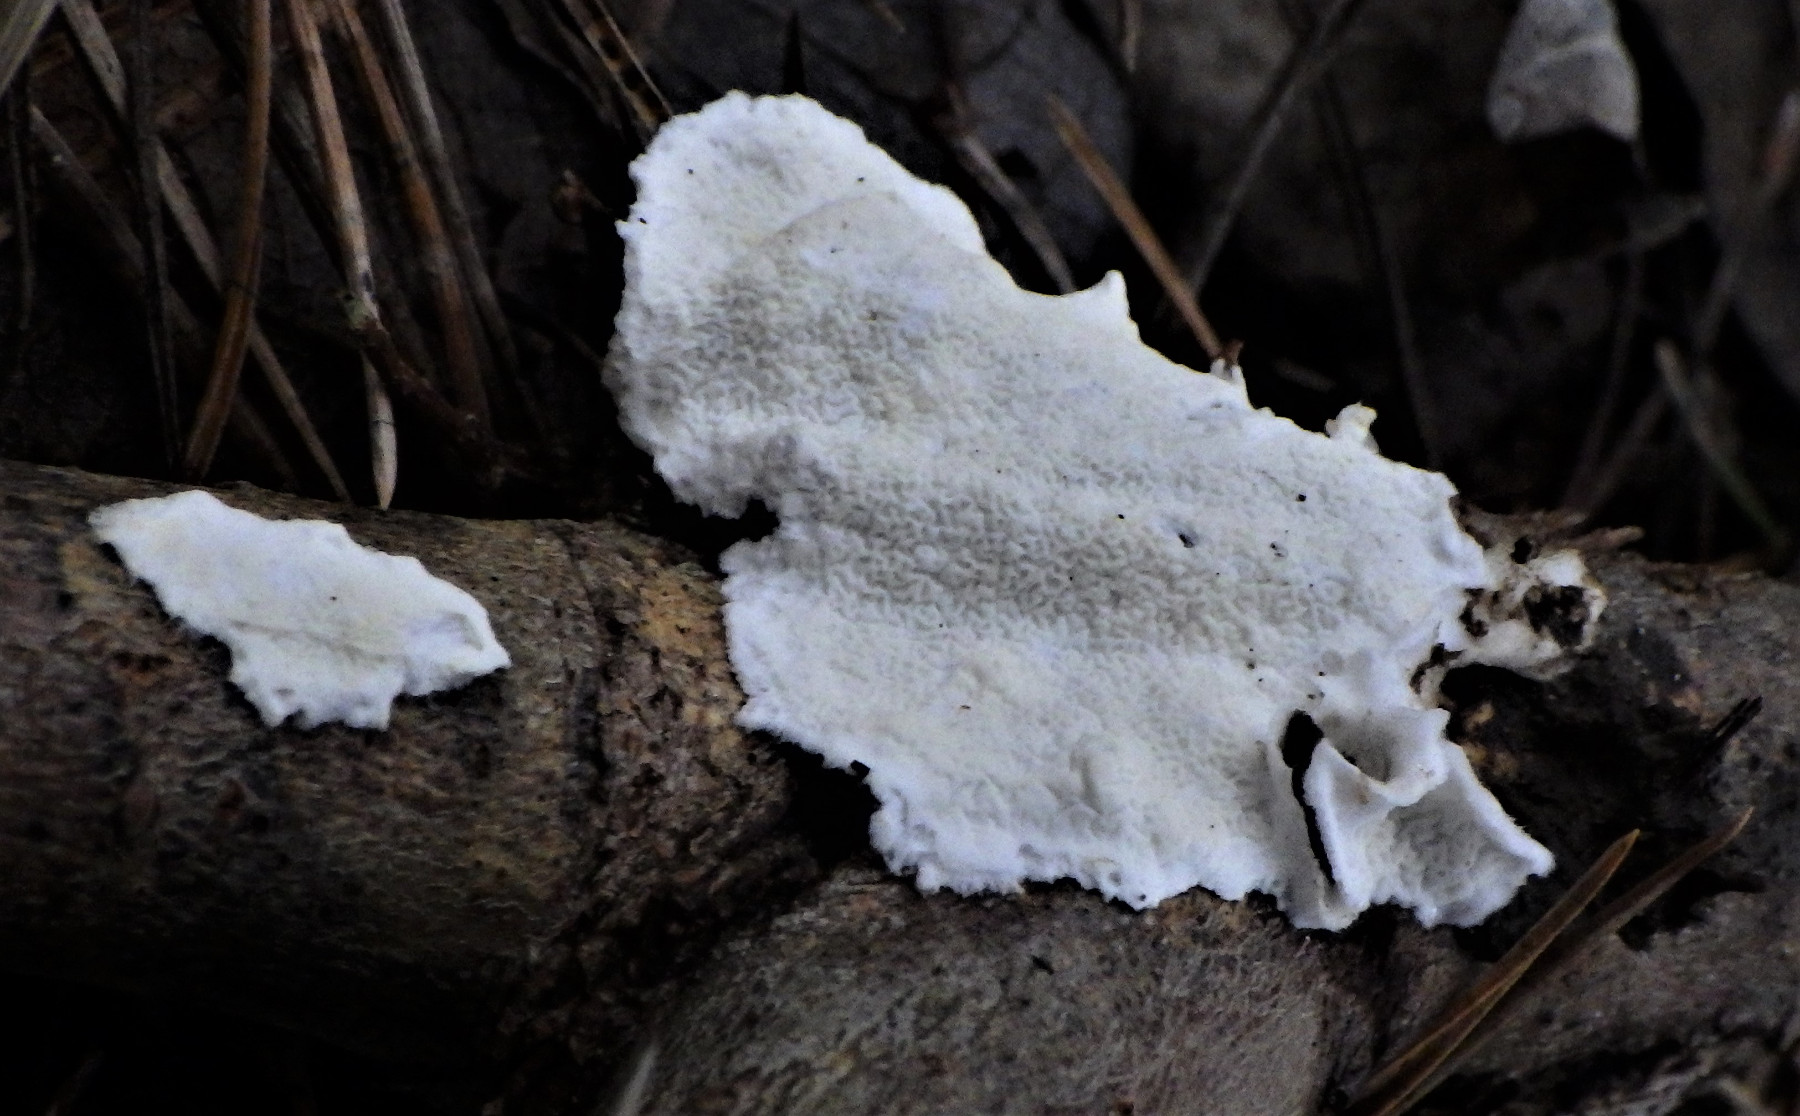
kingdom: Fungi
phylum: Basidiomycota
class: Agaricomycetes
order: Polyporales
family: Irpicaceae
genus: Byssomerulius
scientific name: Byssomerulius corium
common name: læder-åresvamp
